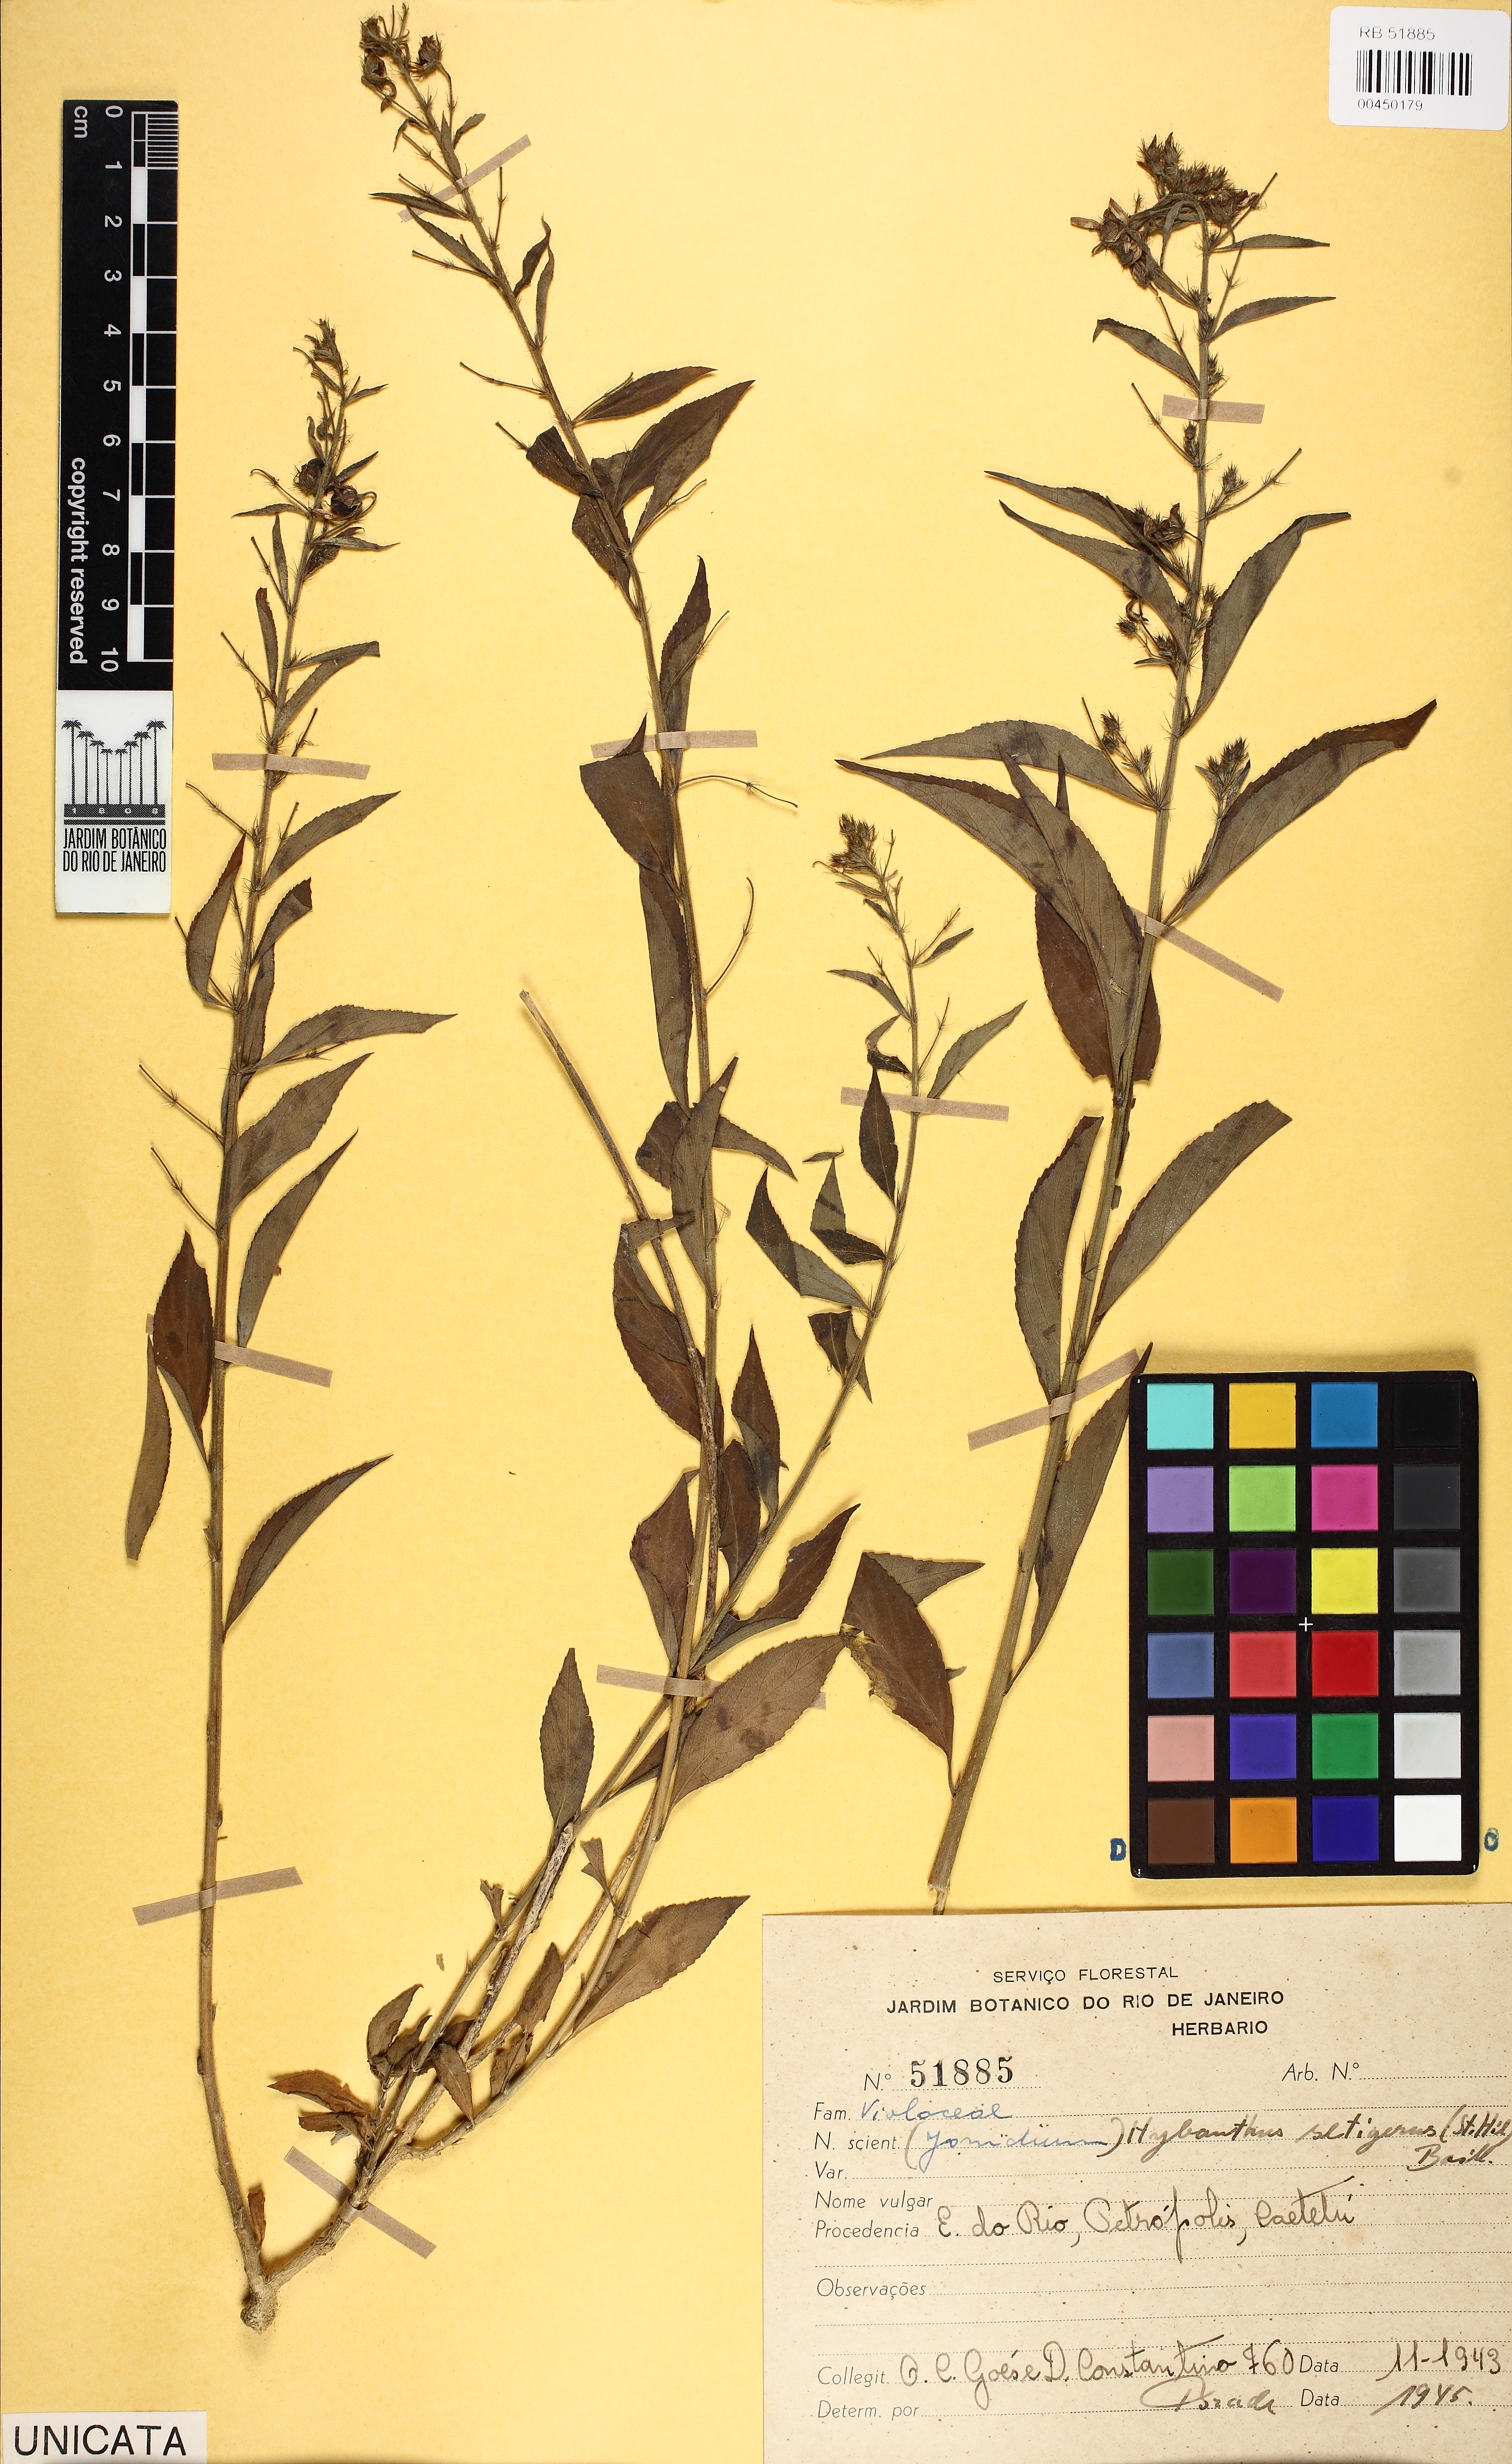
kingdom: Plantae
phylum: Tracheophyta
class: Magnoliopsida
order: Malpighiales
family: Violaceae
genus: Pombalia
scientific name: Pombalia setigera
